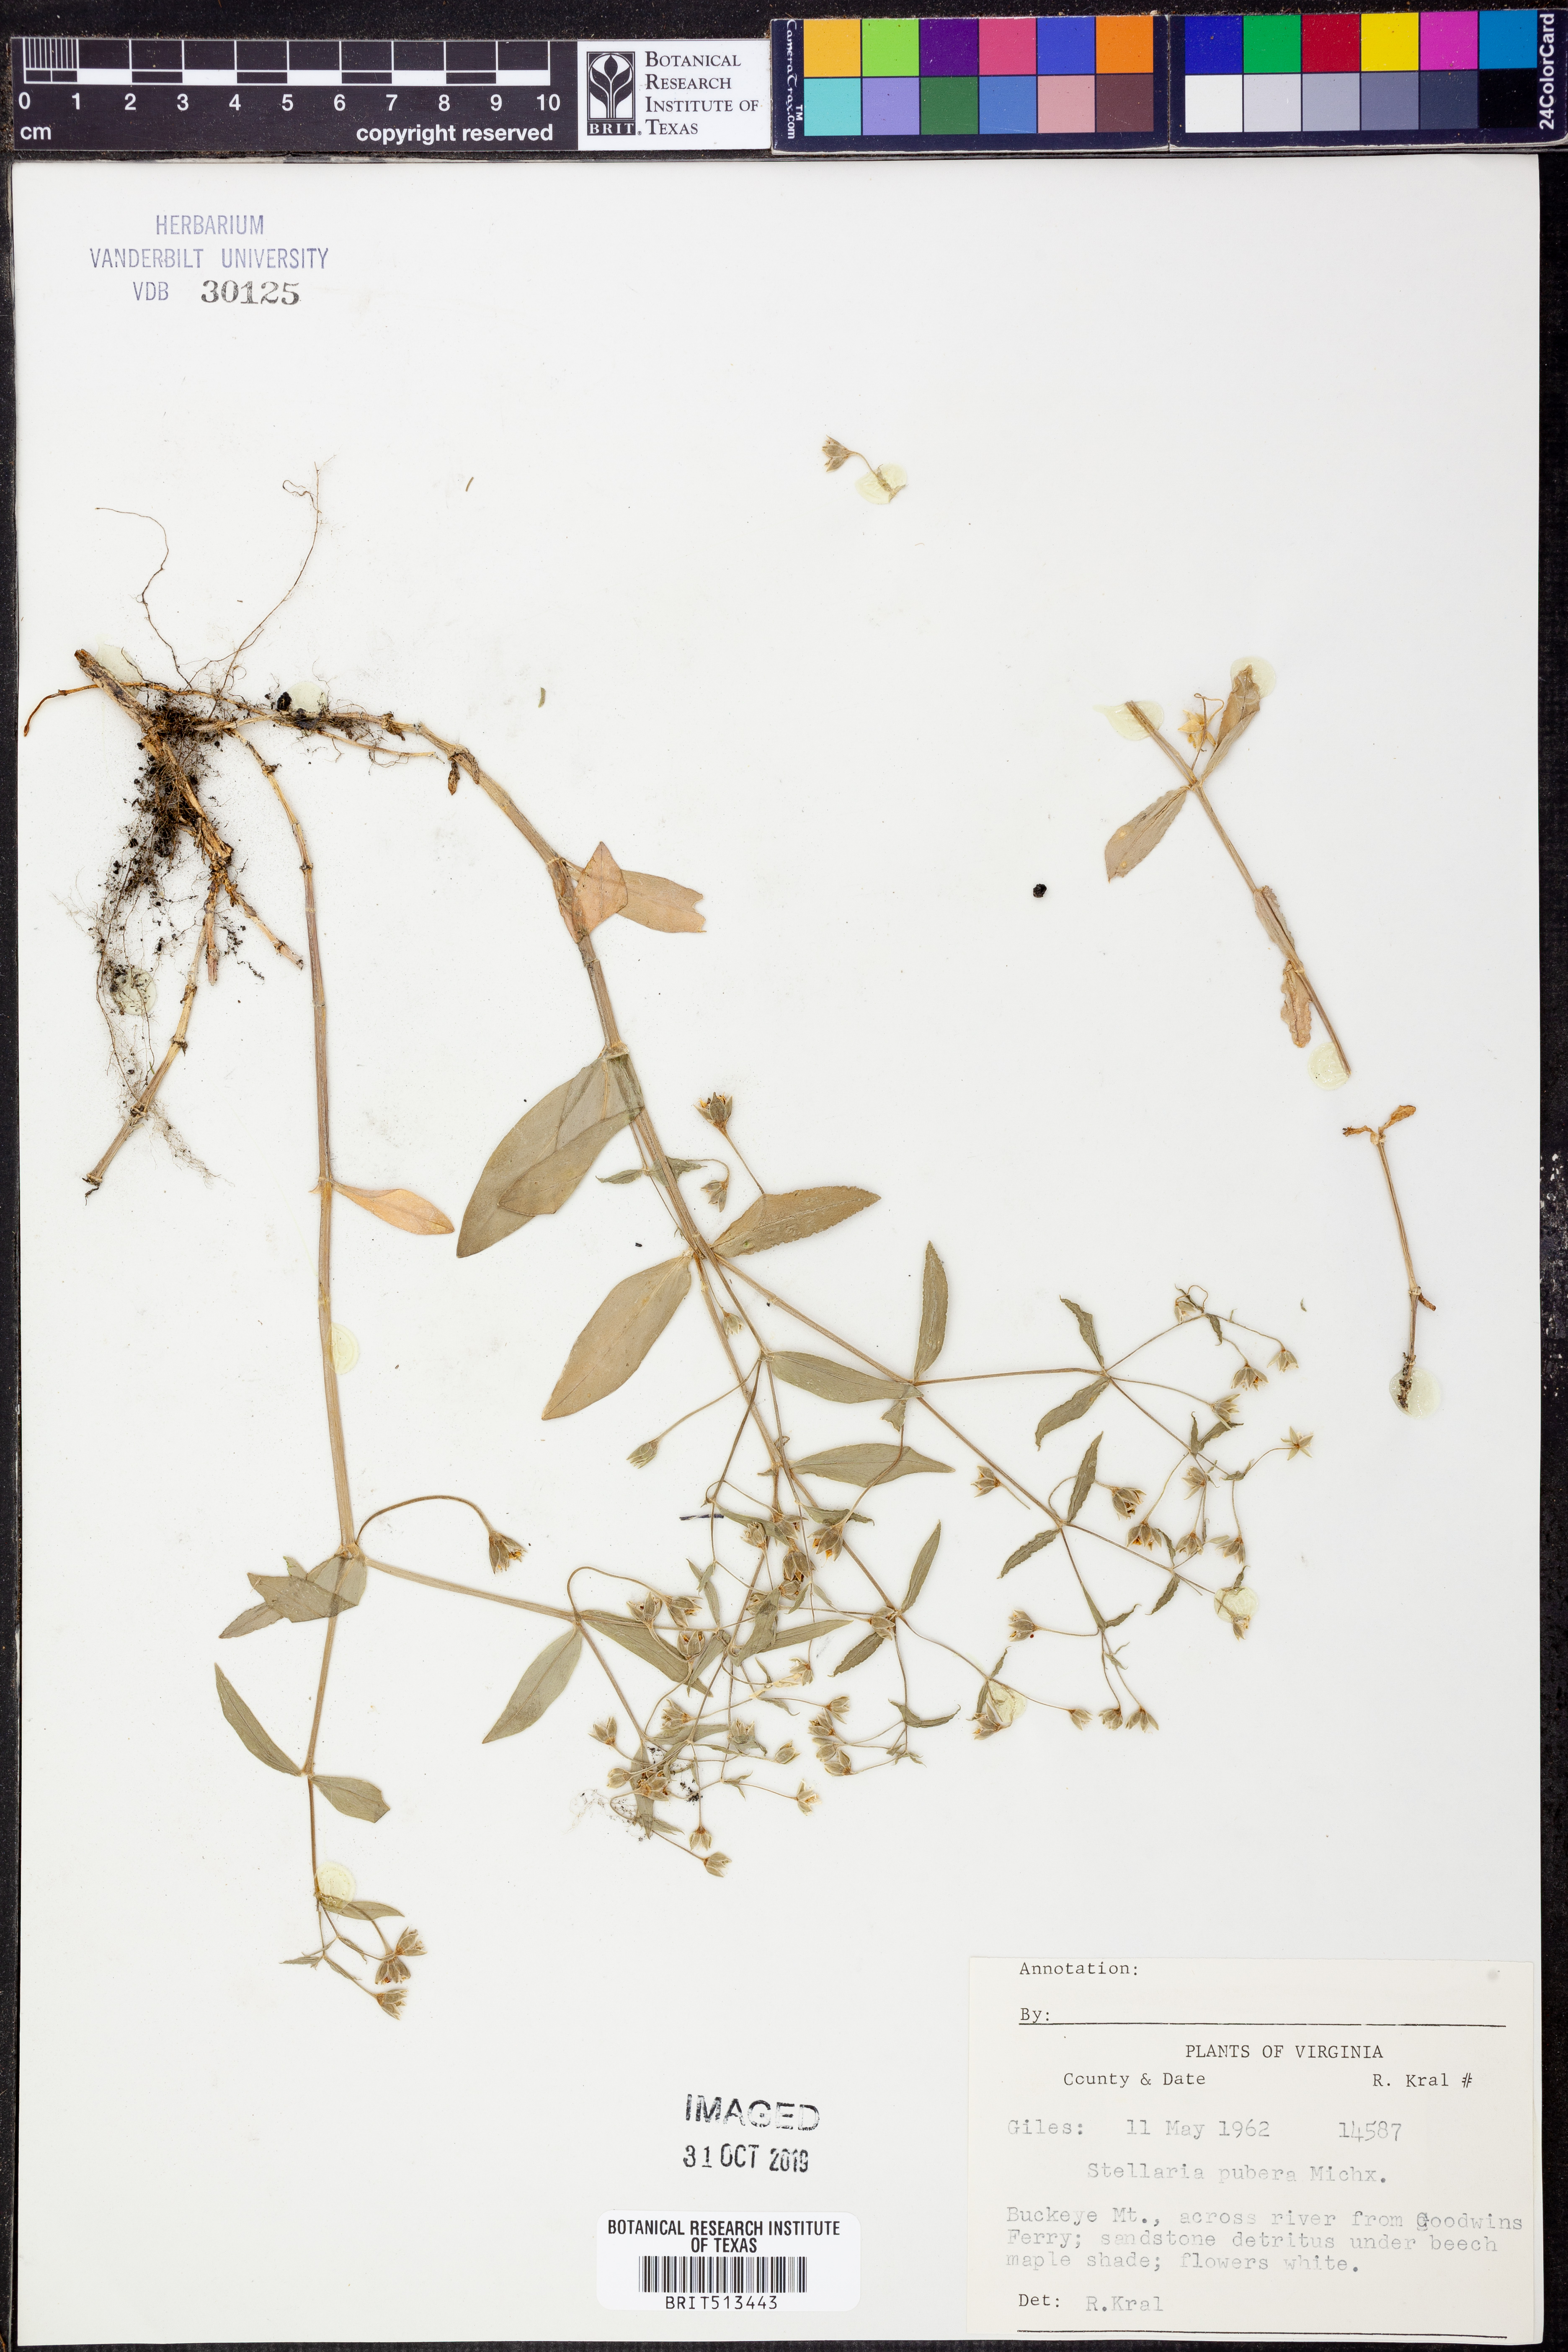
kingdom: Plantae
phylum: Tracheophyta
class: Magnoliopsida
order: Caryophyllales
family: Caryophyllaceae
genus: Stellaria
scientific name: Stellaria pubera
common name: Star chickweed
